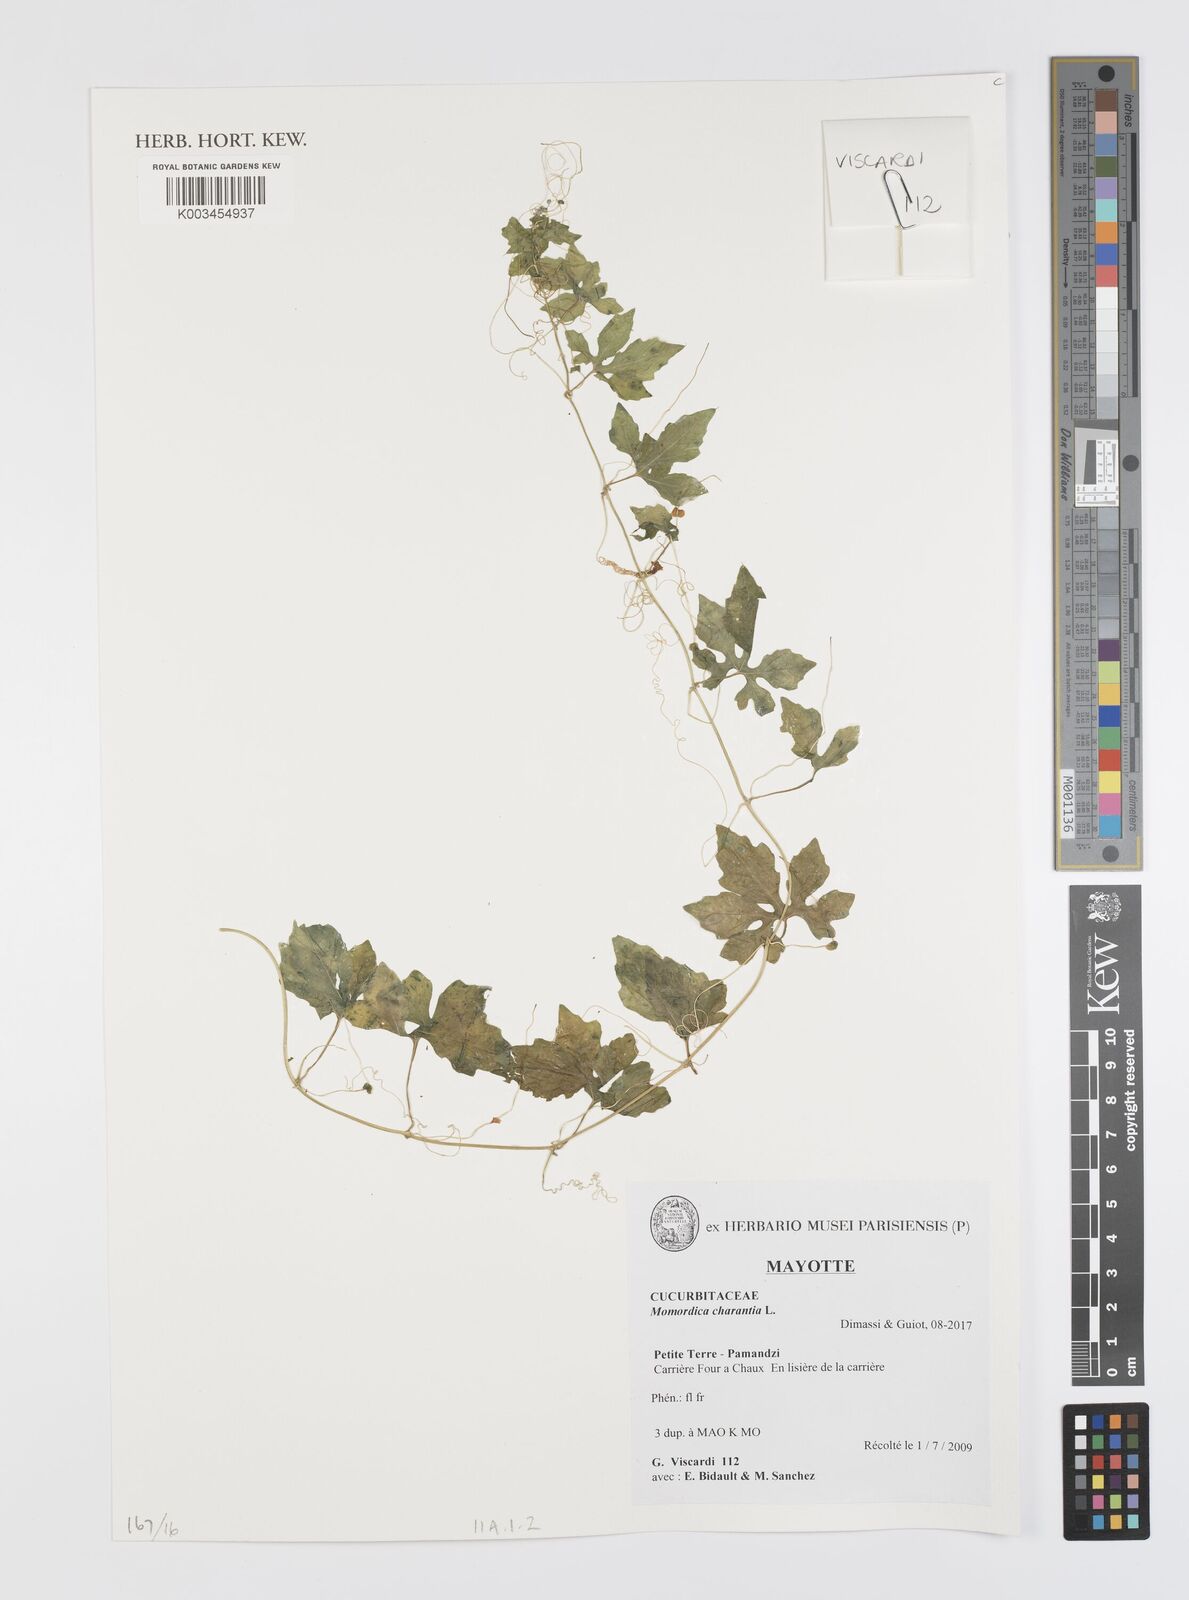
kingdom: Plantae
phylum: Tracheophyta
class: Magnoliopsida
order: Cucurbitales
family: Cucurbitaceae
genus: Momordica
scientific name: Momordica charantia
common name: Balsampear
